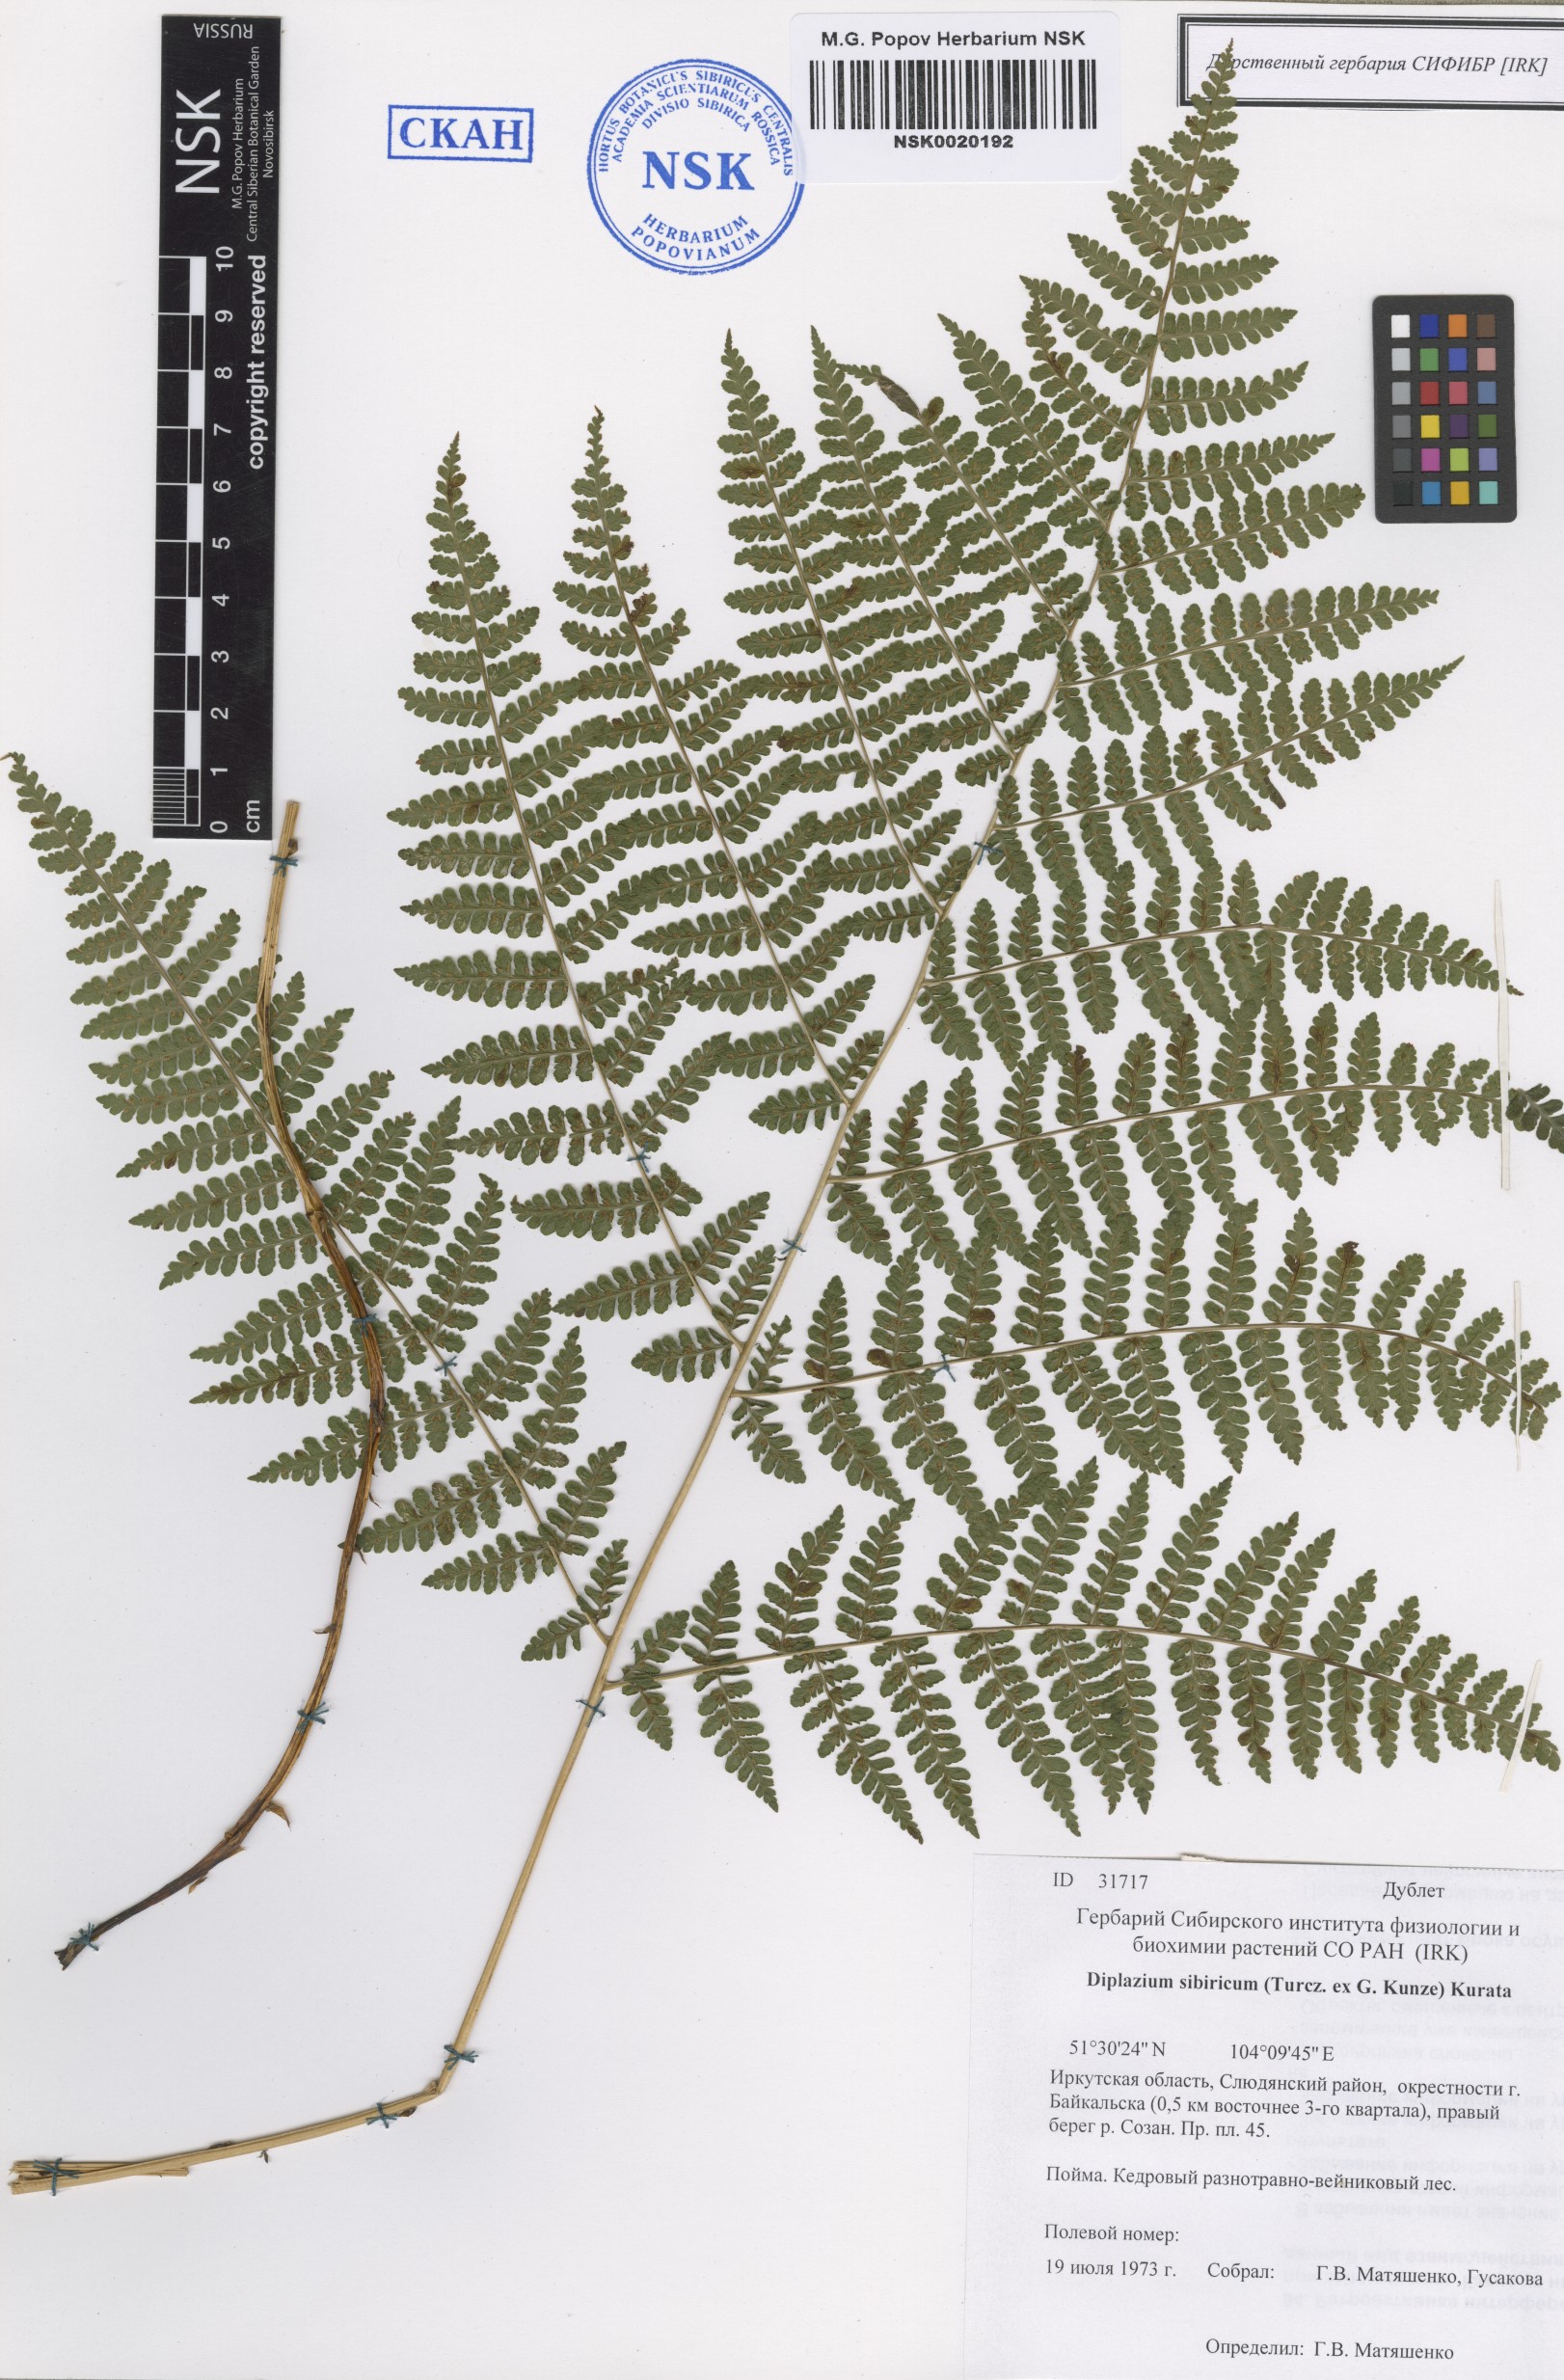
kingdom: Plantae
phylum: Tracheophyta
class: Polypodiopsida
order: Polypodiales
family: Athyriaceae
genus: Diplazium
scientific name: Diplazium sibiricum
